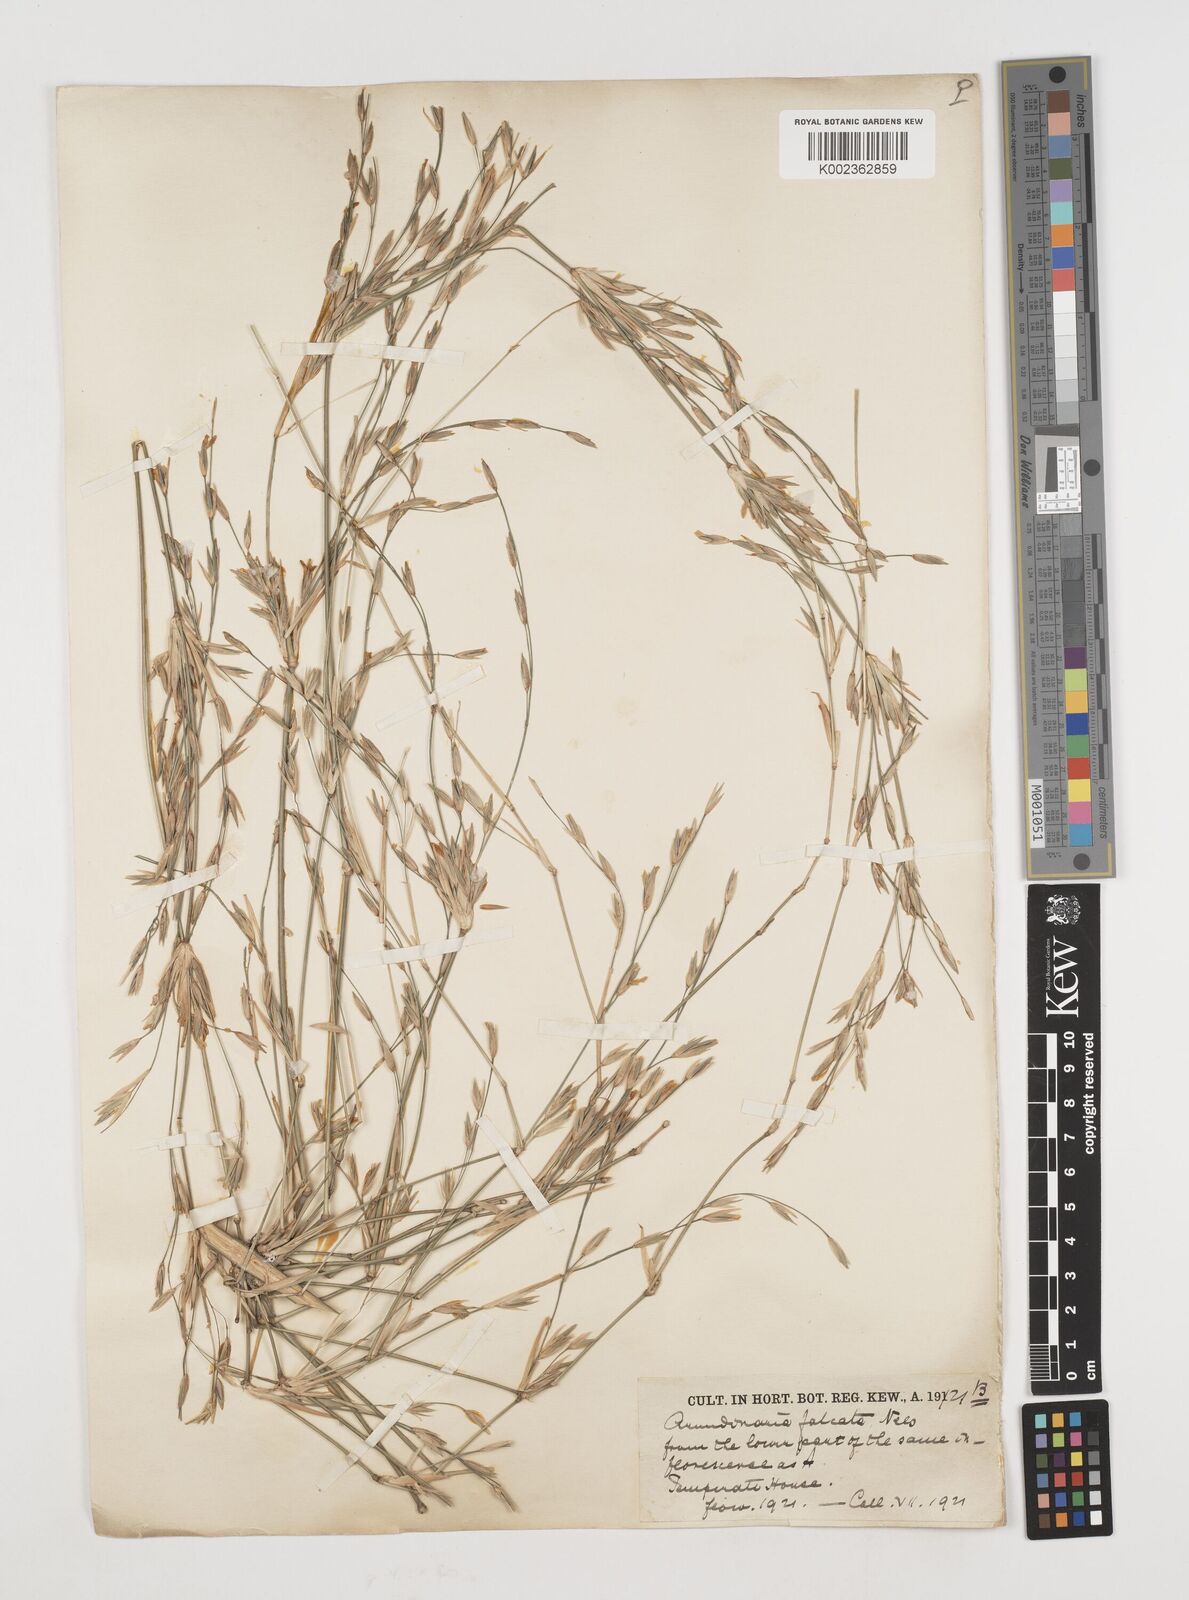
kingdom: Plantae
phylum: Tracheophyta
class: Liliopsida
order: Poales
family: Poaceae
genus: Drepanostachyum
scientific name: Drepanostachyum falcatum
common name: Himalayan bamboo
